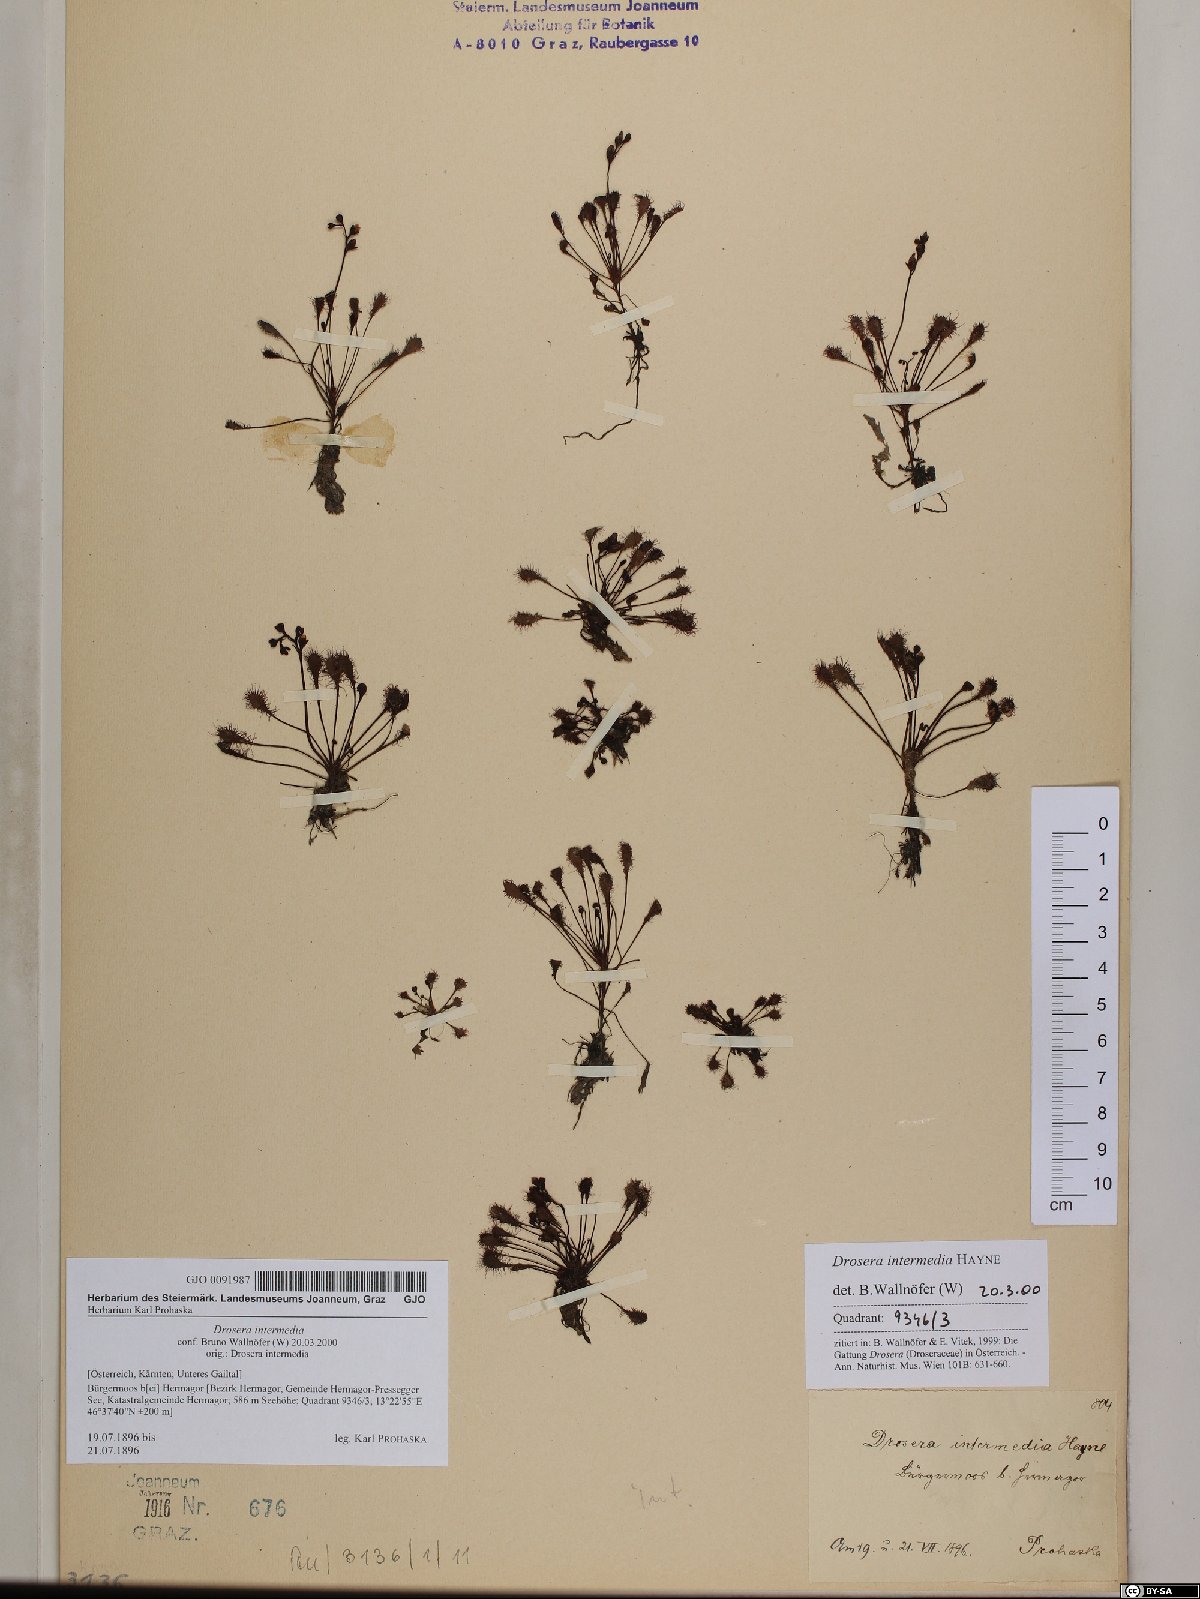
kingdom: Plantae
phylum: Tracheophyta
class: Magnoliopsida
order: Caryophyllales
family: Droseraceae
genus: Drosera
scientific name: Drosera intermedia
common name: Oblong-leaved sundew
